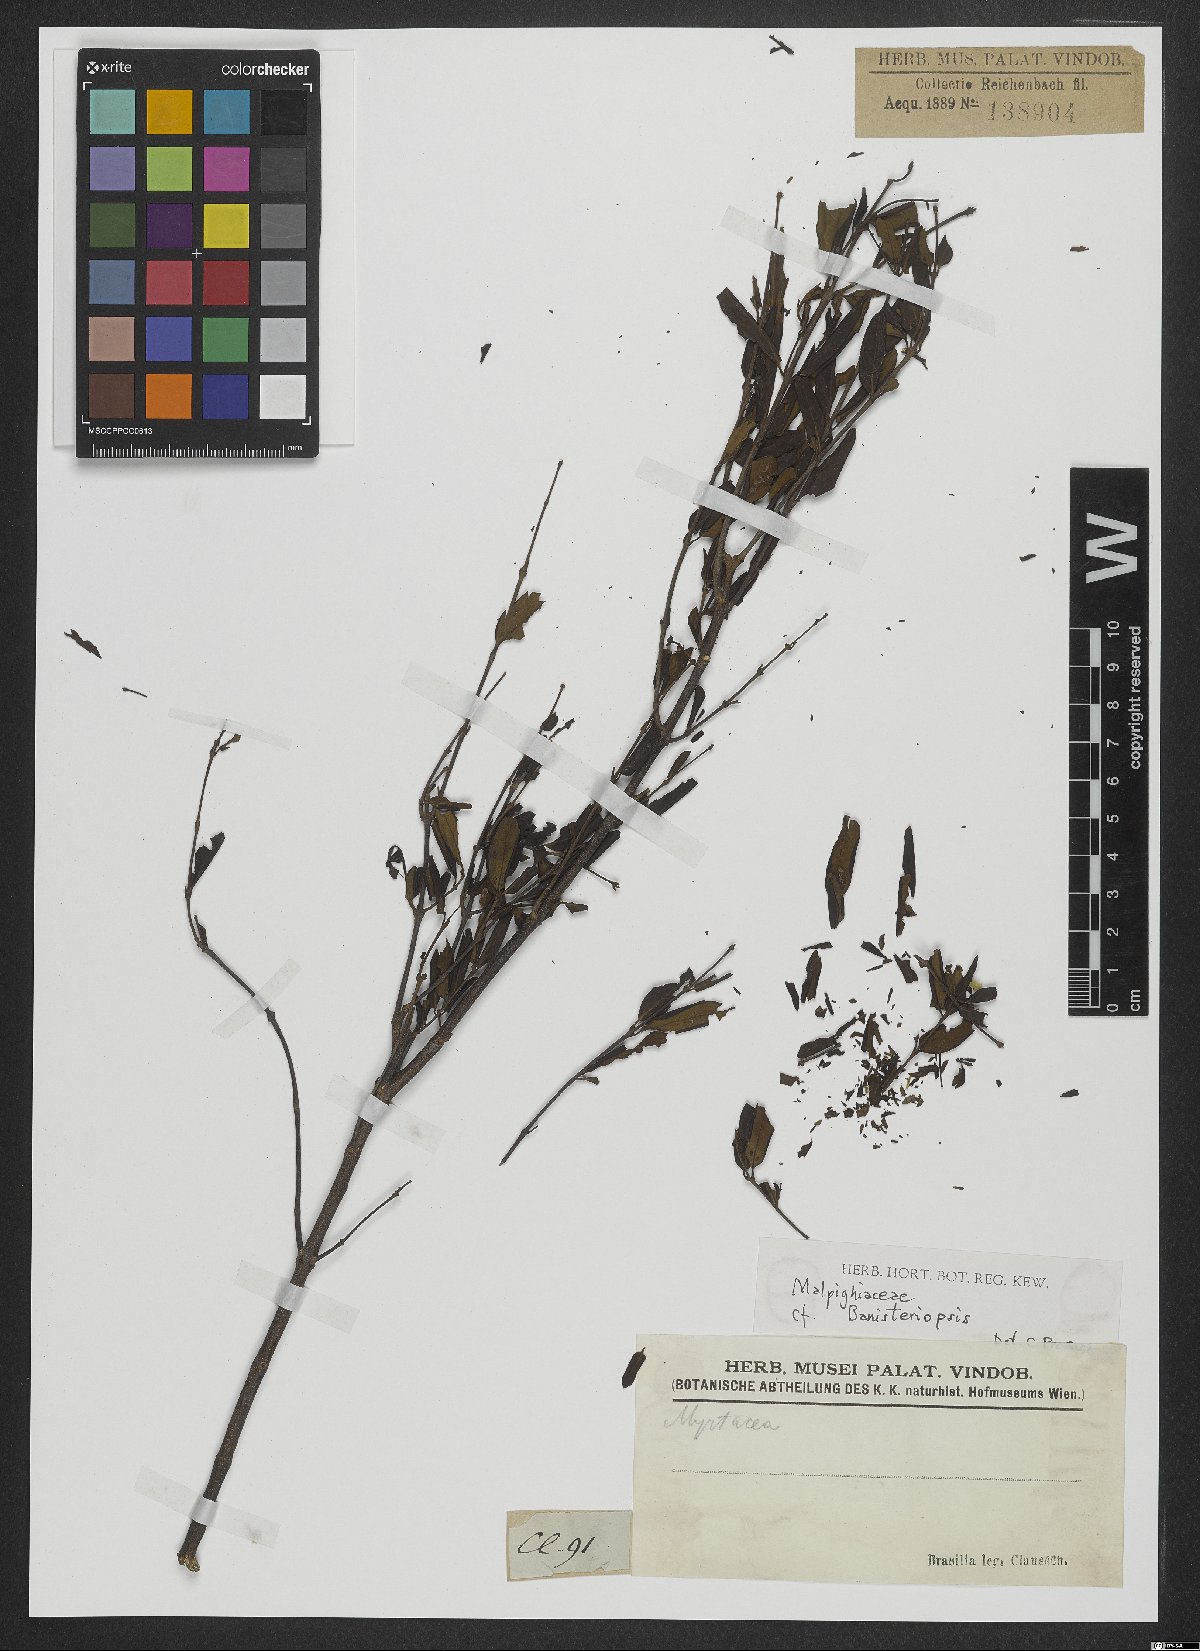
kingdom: Plantae
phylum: Tracheophyta
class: Magnoliopsida
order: Malpighiales
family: Malpighiaceae
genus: Banisteriopsis
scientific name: Banisteriopsis
